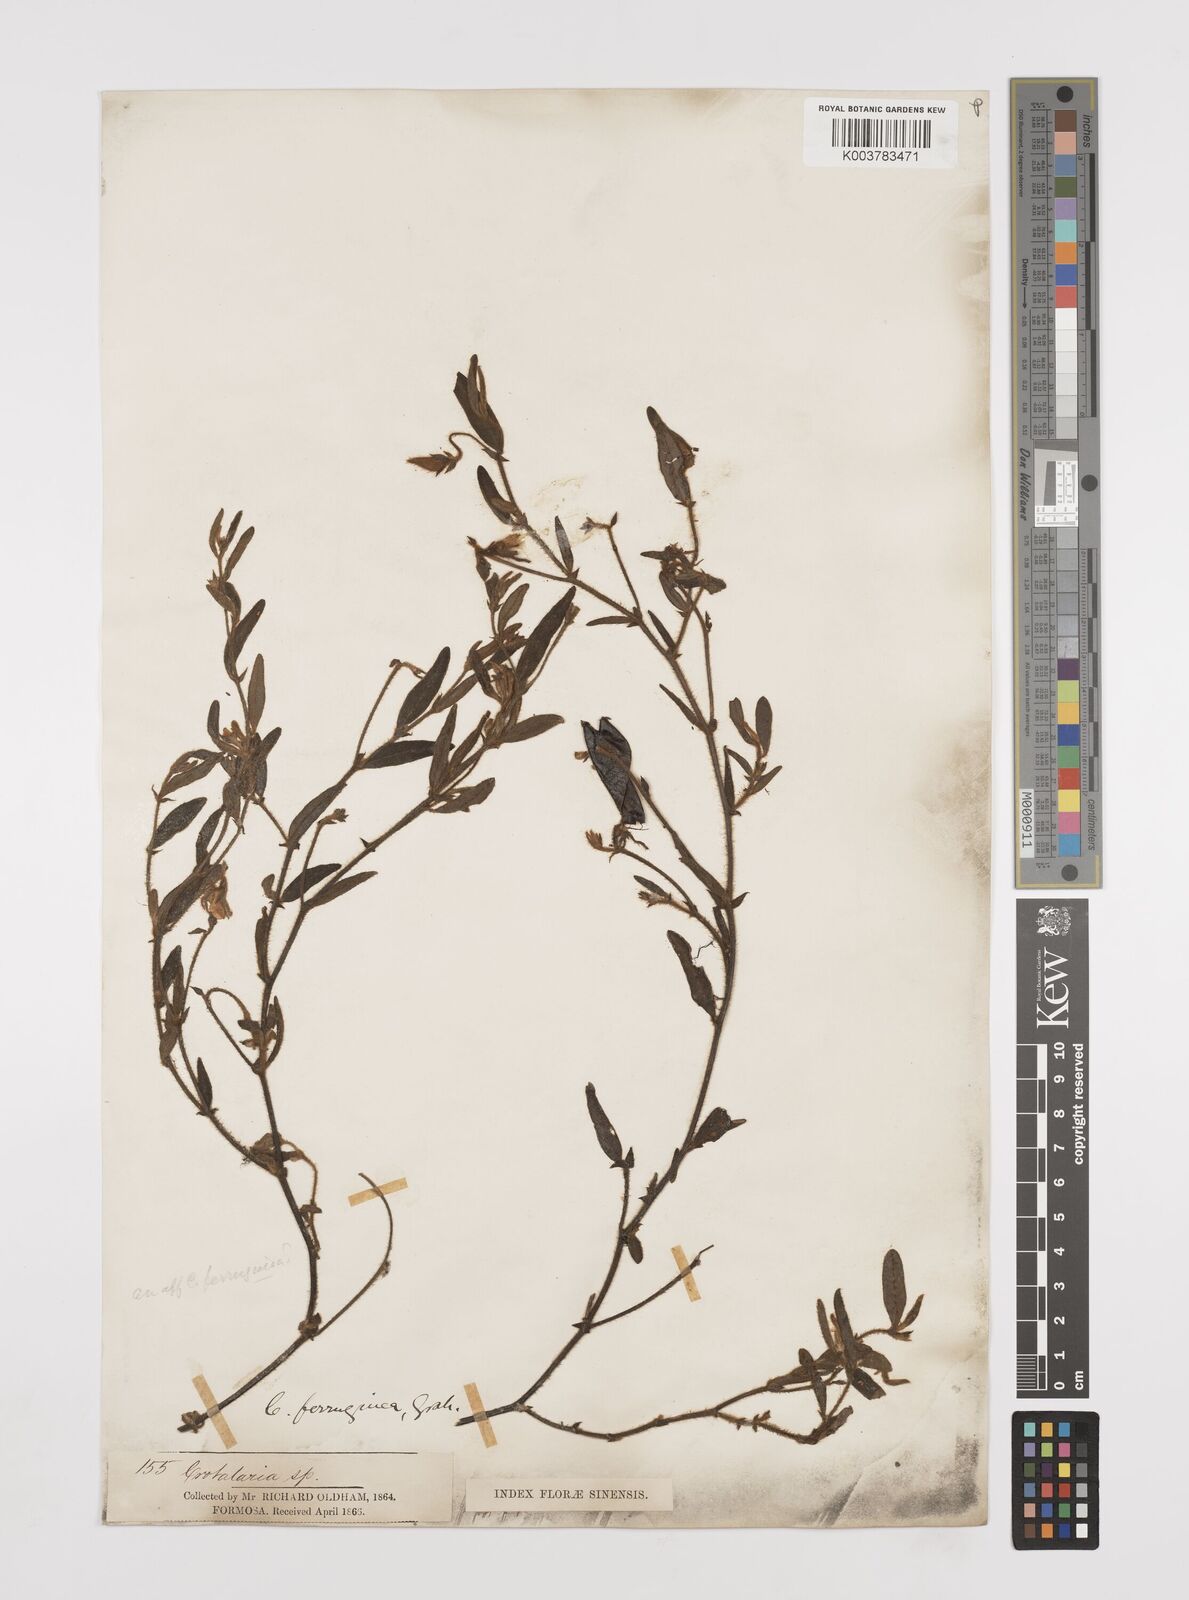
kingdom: Plantae
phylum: Tracheophyta
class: Magnoliopsida
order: Fabales
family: Fabaceae
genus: Crotalaria
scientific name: Crotalaria lejoloba
